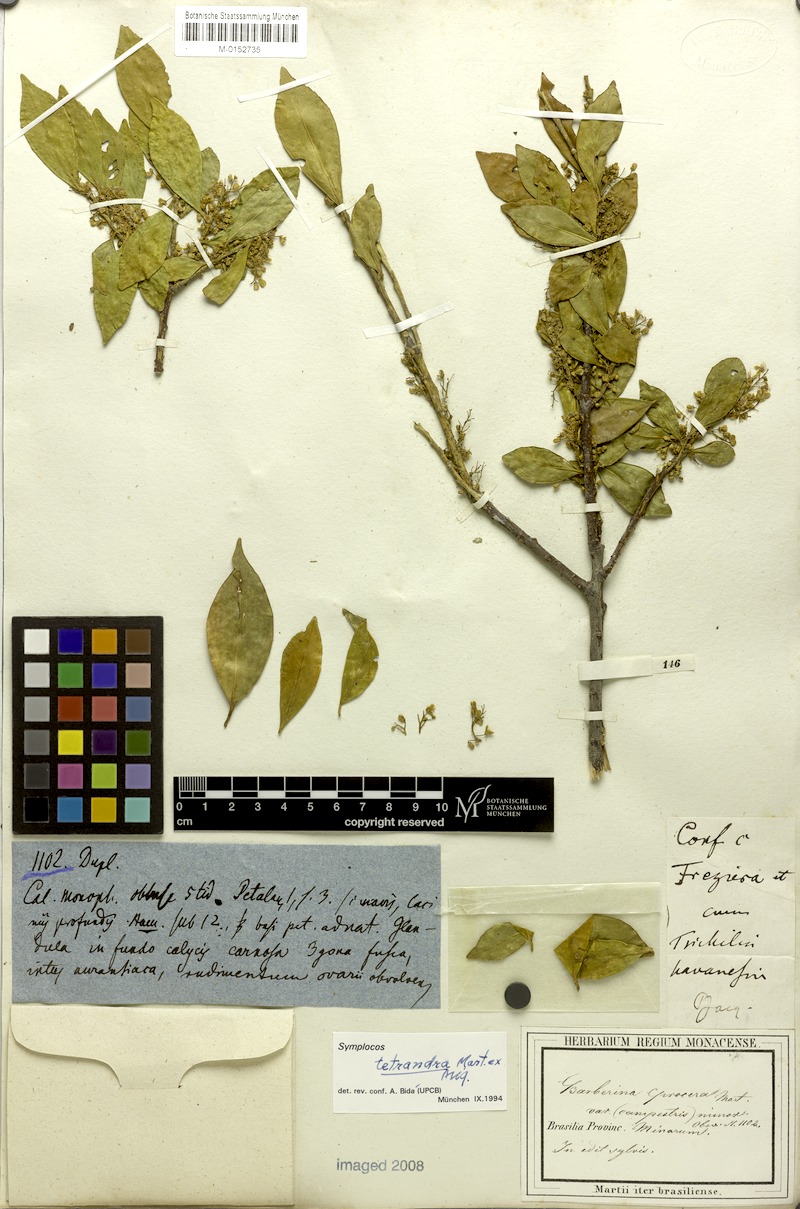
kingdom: Plantae
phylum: Tracheophyta
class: Magnoliopsida
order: Ericales
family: Symplocaceae
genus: Symplocos
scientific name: Symplocos tetrandra
